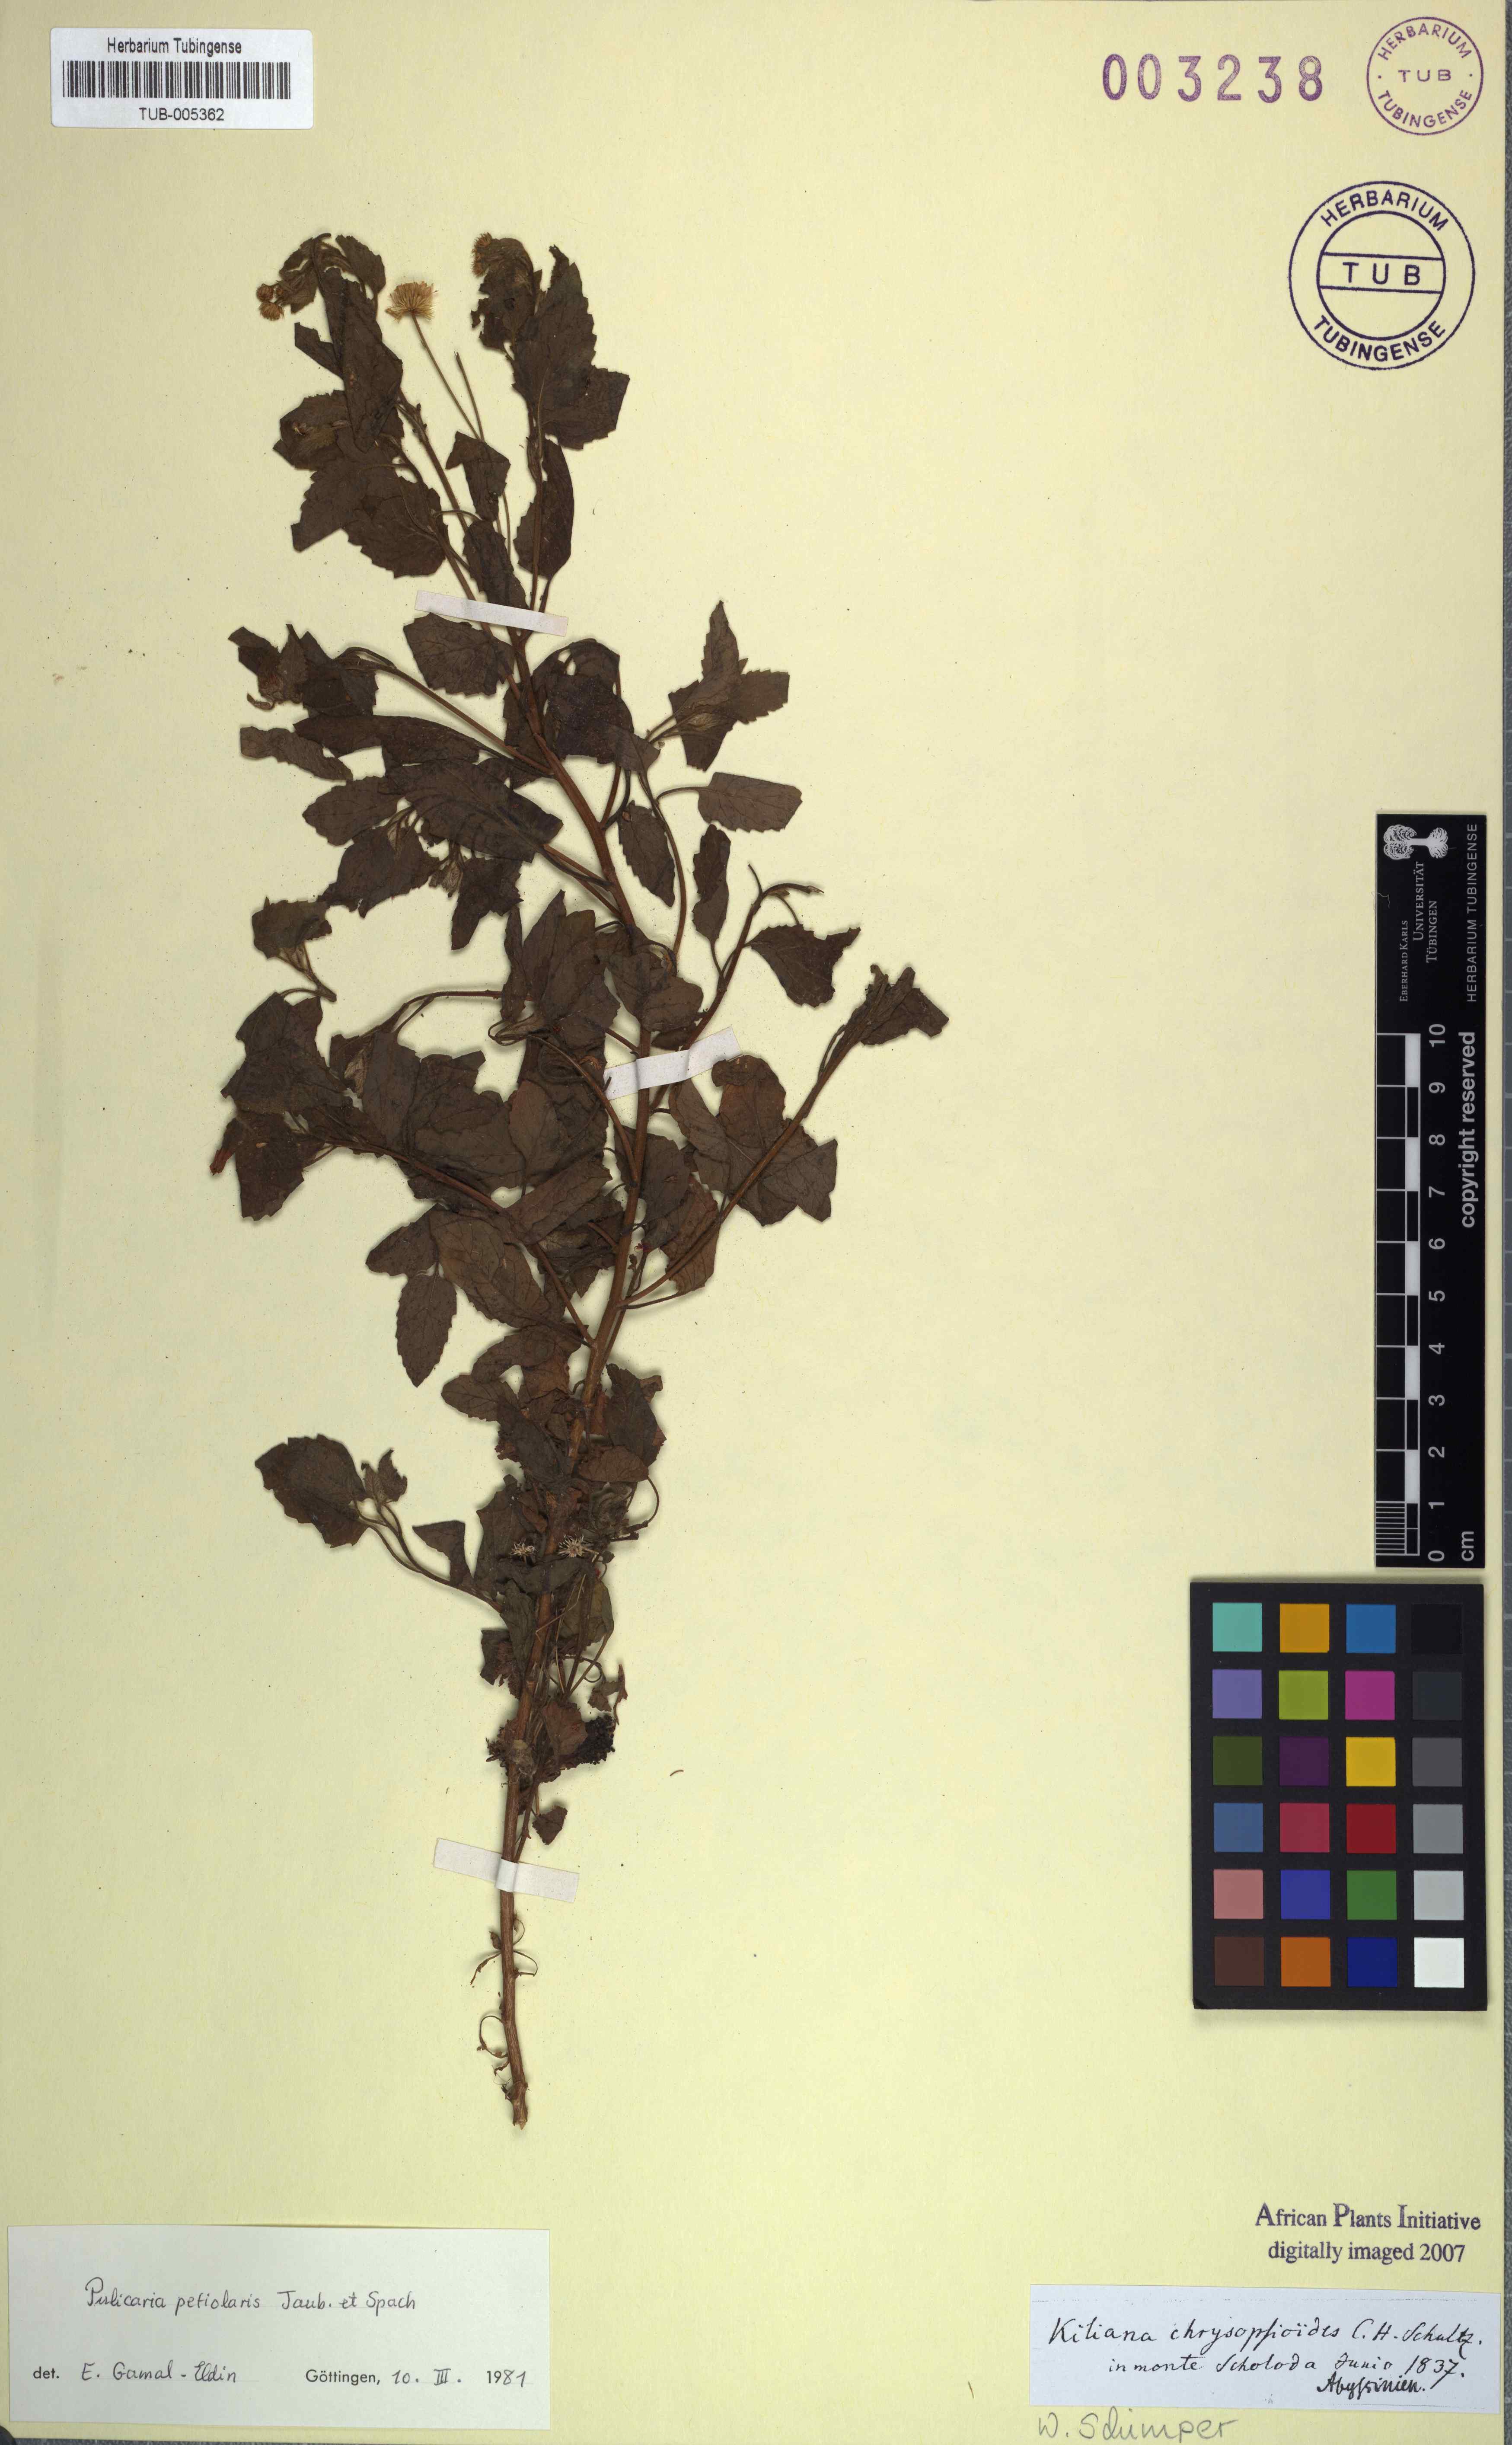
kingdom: Plantae
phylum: Tracheophyta
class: Magnoliopsida
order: Asterales
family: Asteraceae
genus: Pulicaria
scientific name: Pulicaria petiolaris
